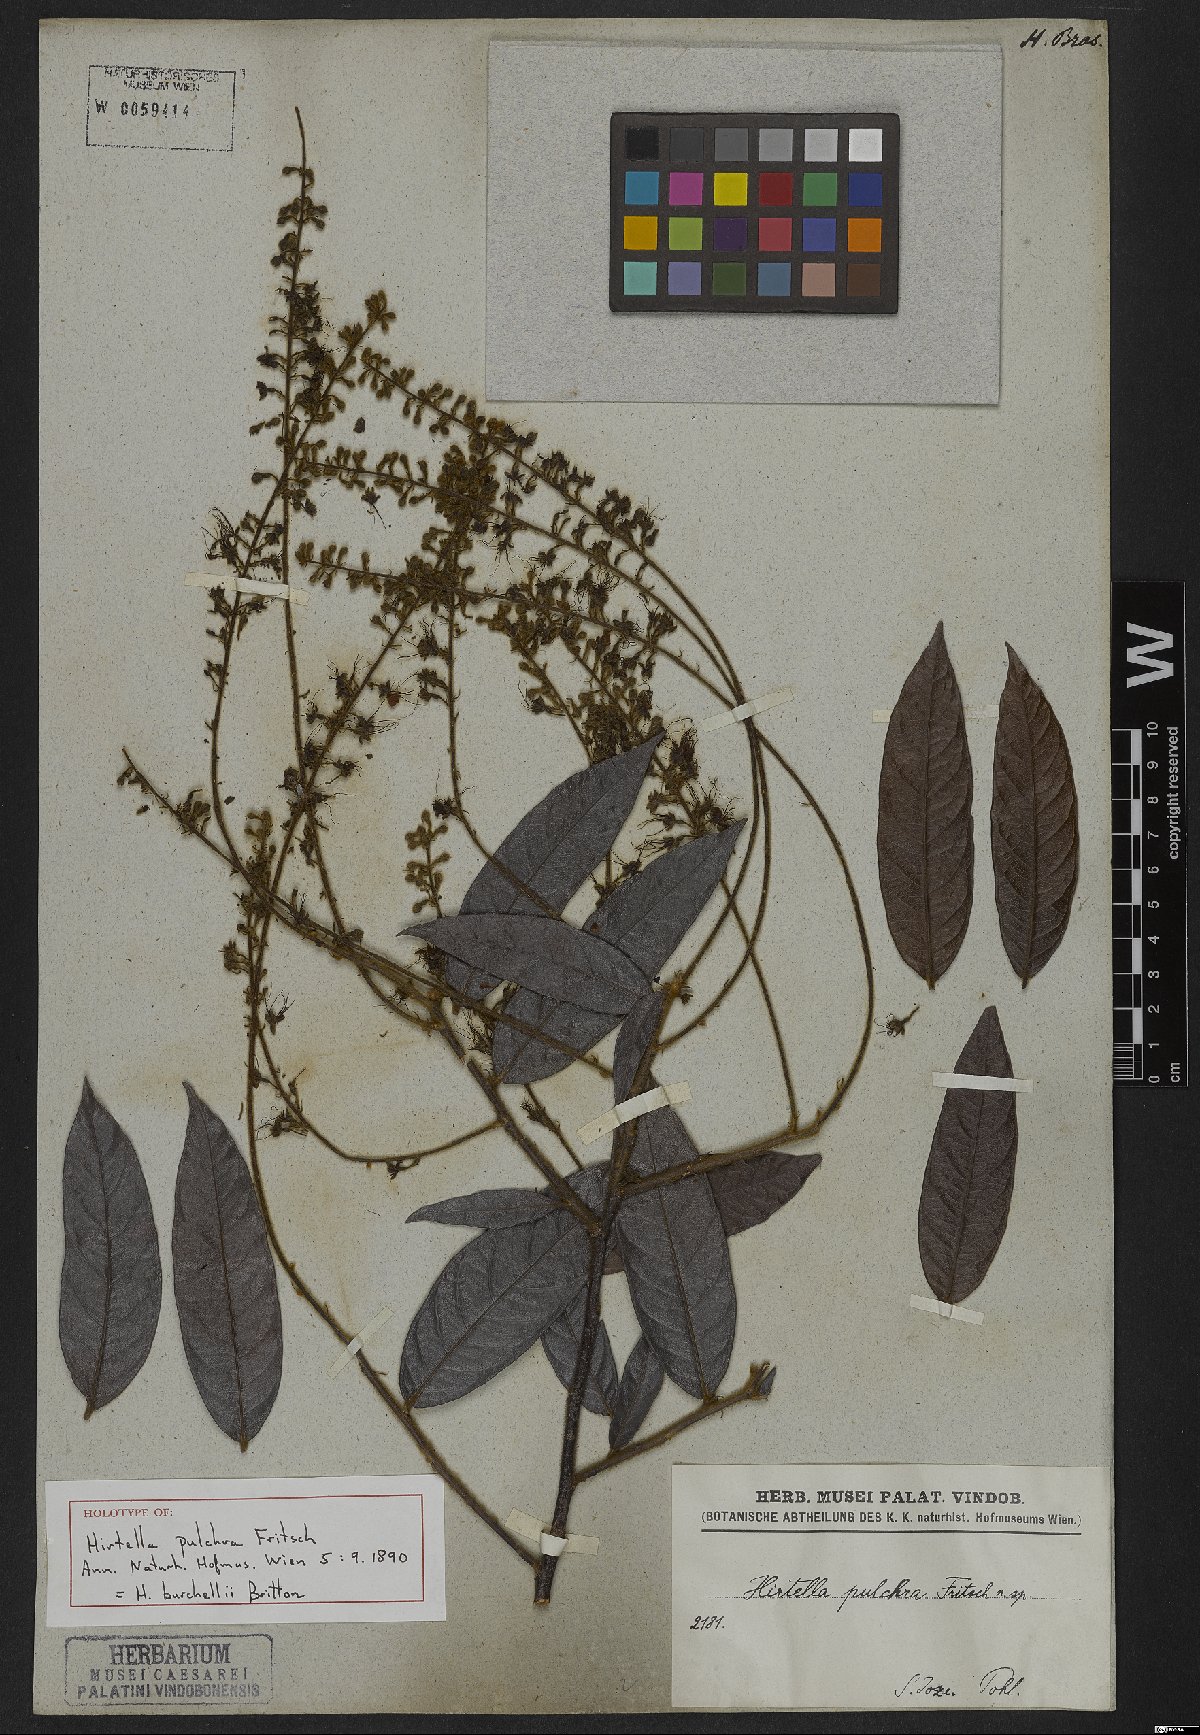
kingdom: Plantae
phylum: Tracheophyta
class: Magnoliopsida
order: Malpighiales
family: Chrysobalanaceae
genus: Hirtella
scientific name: Hirtella burchellii
